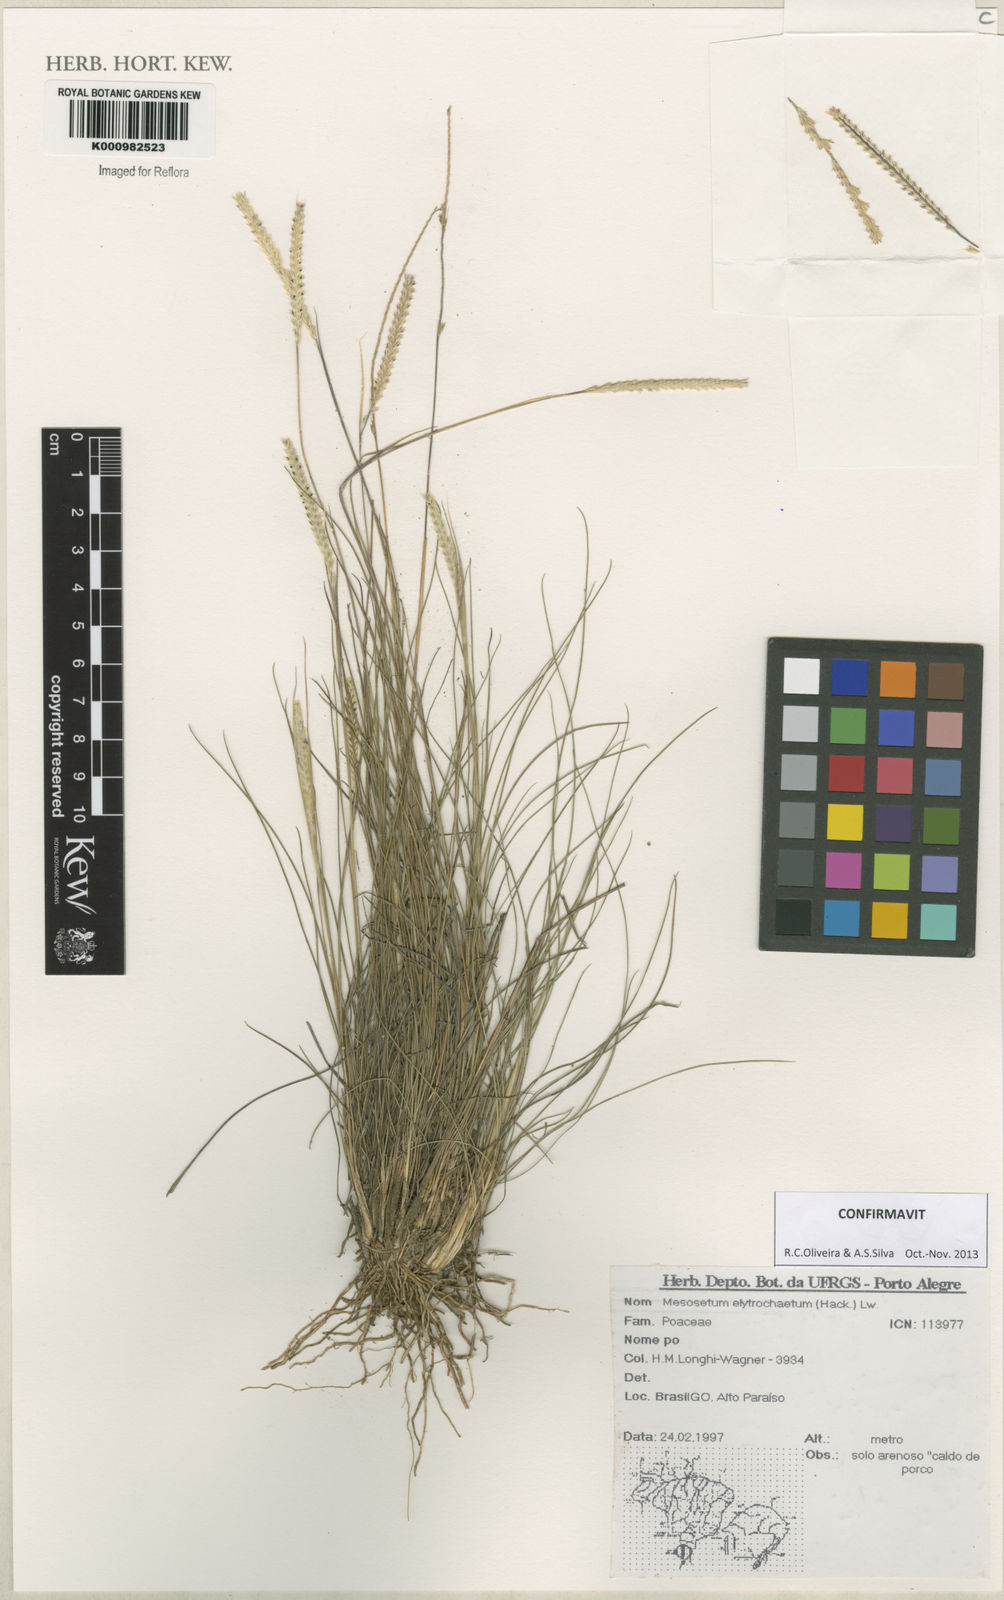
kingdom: Plantae
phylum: Tracheophyta
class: Liliopsida
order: Poales
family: Poaceae
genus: Mesosetum
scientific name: Mesosetum elytrochaetum
